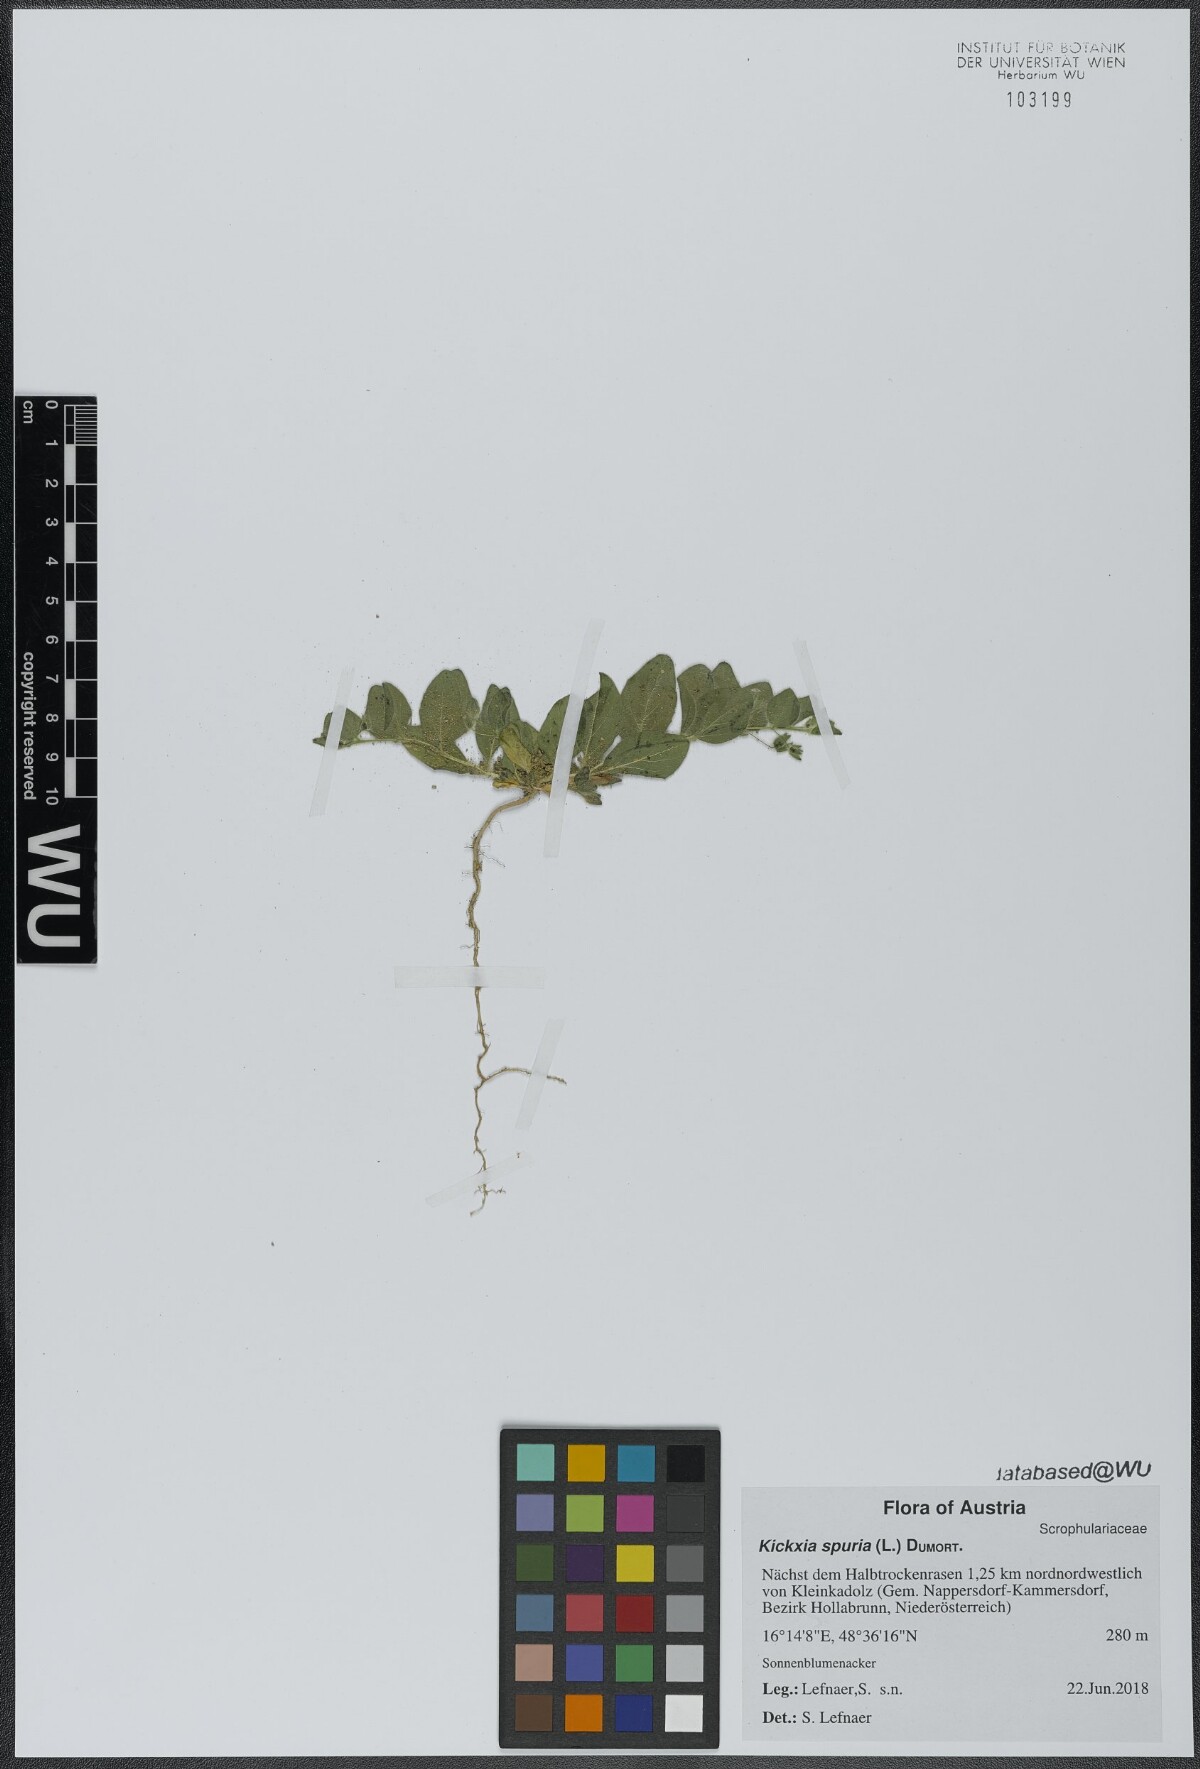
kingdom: Plantae
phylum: Tracheophyta
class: Magnoliopsida
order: Lamiales
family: Plantaginaceae
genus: Kickxia
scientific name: Kickxia spuria
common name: Round-leaved fluellen
